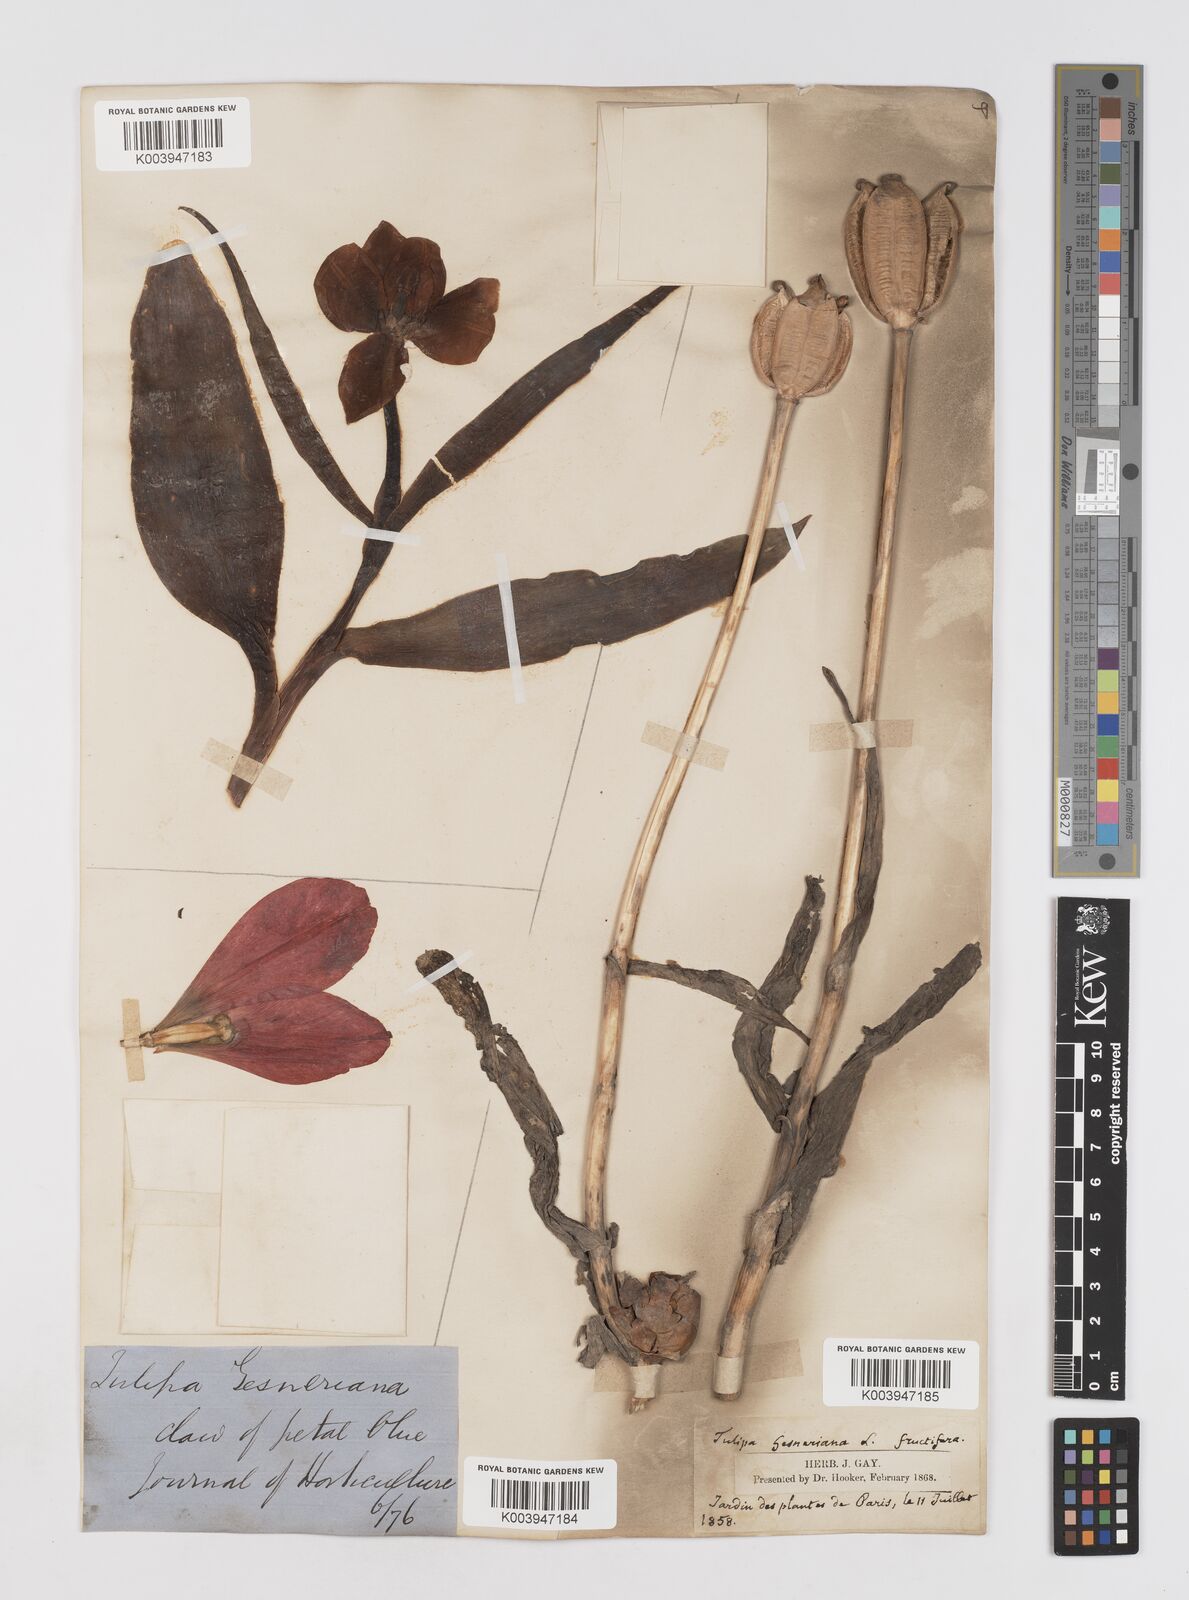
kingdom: Plantae
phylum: Tracheophyta
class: Liliopsida
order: Liliales
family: Liliaceae
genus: Tulipa
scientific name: Tulipa gesneriana
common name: Garden tulip
